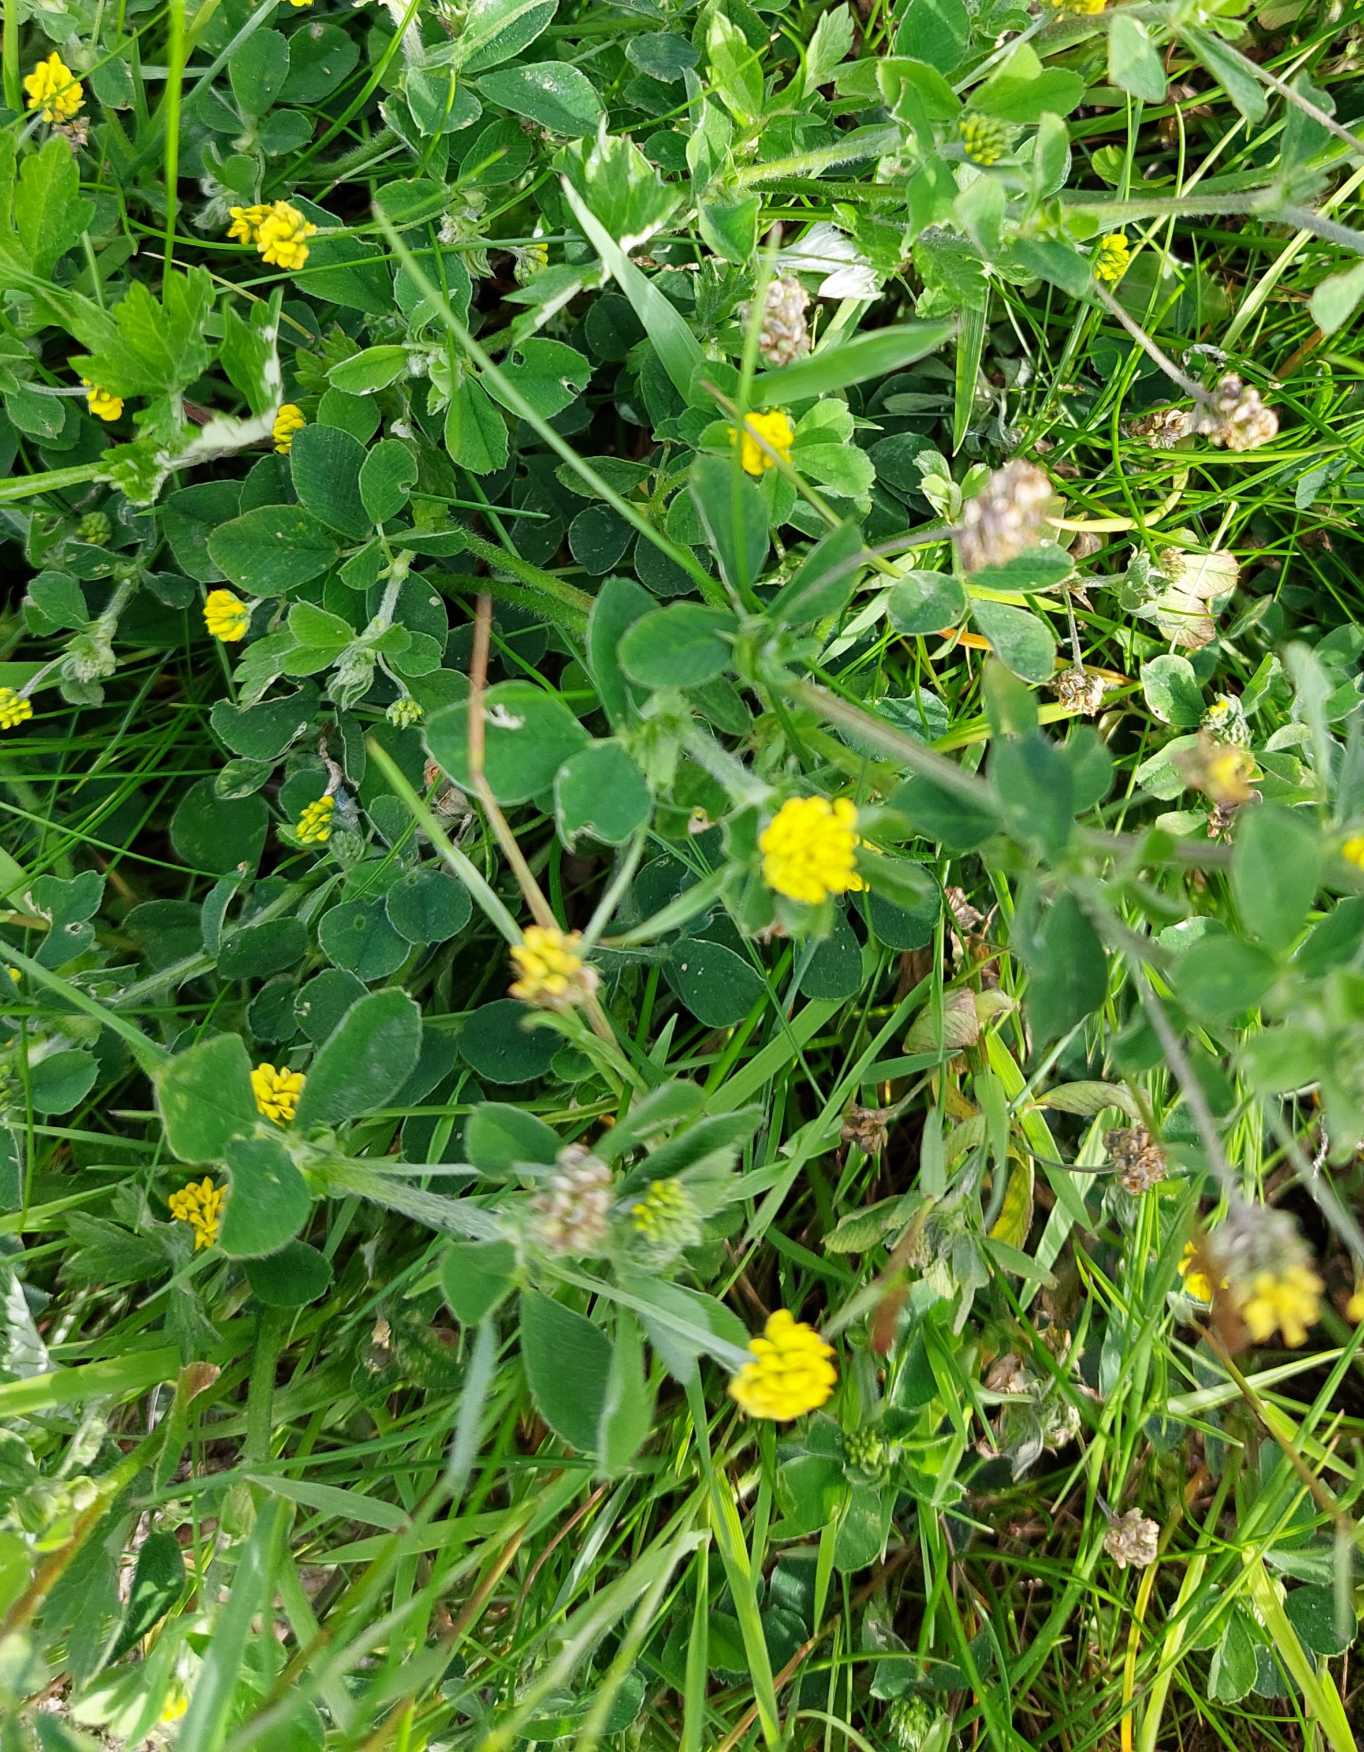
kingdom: Plantae
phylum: Tracheophyta
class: Magnoliopsida
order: Fabales
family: Fabaceae
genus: Medicago
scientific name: Medicago lupulina
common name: Humle-sneglebælg
